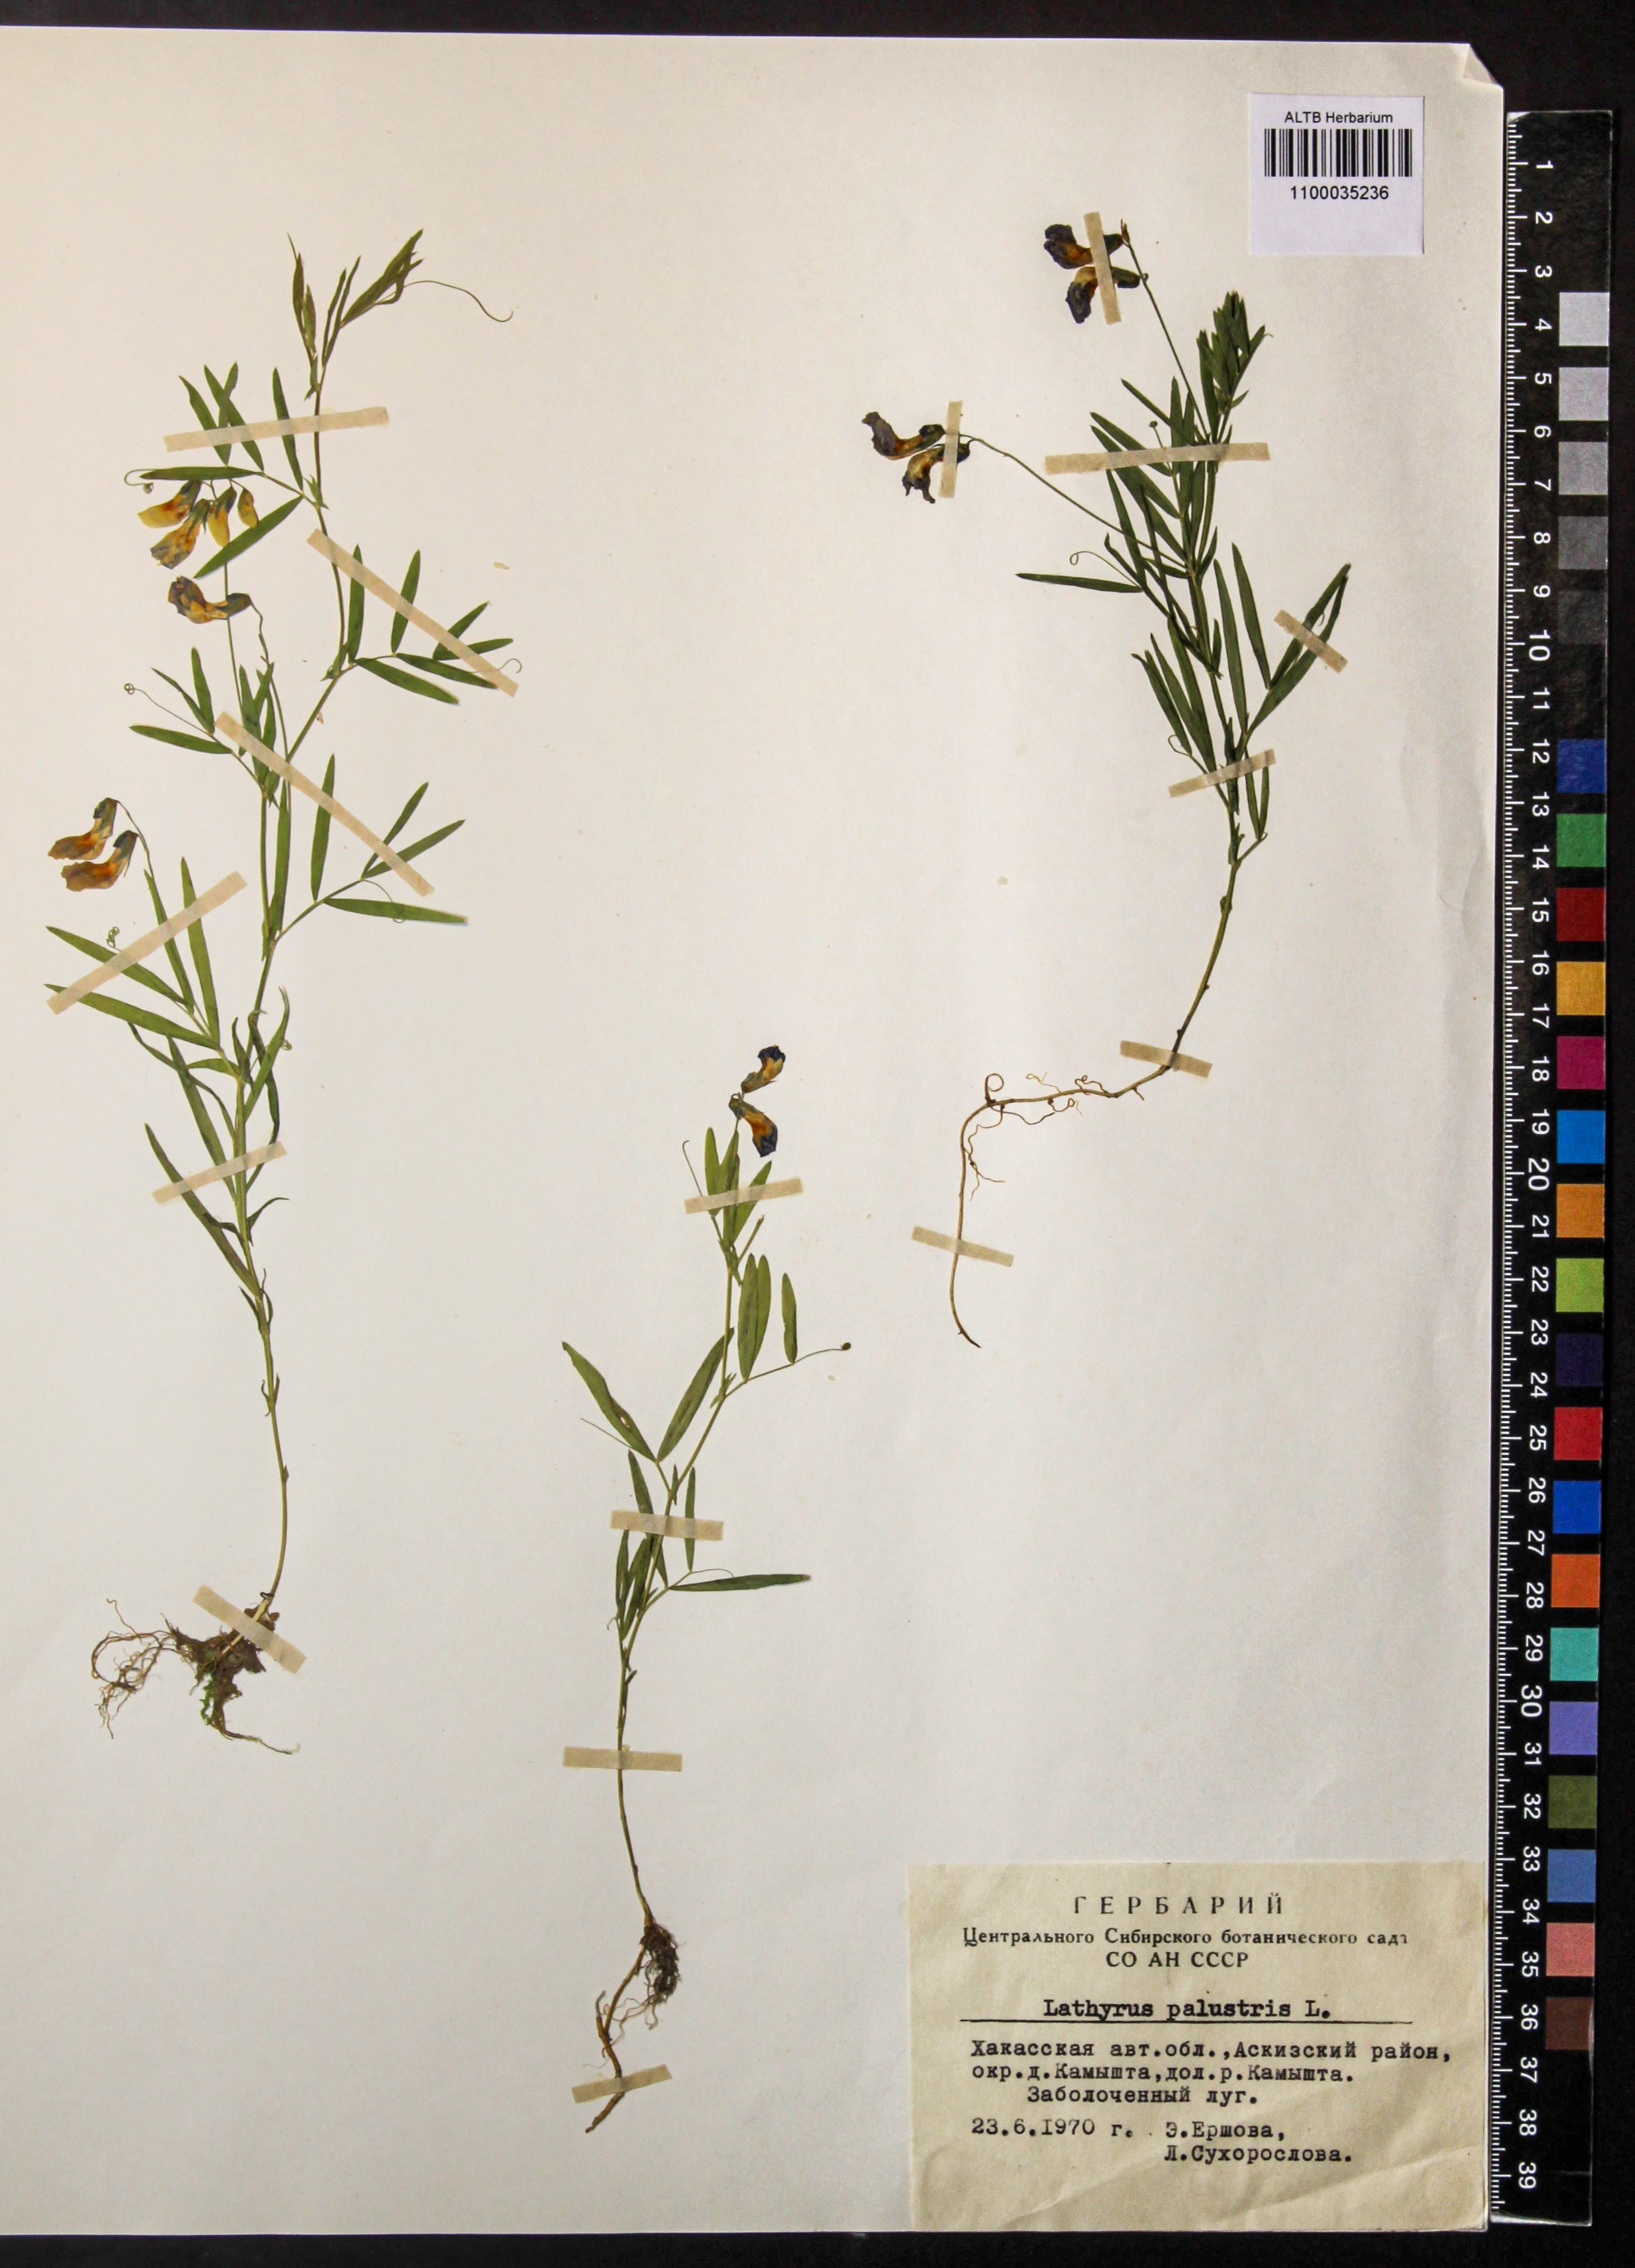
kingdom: Plantae
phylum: Tracheophyta
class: Magnoliopsida
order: Fabales
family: Fabaceae
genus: Lathyrus
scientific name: Lathyrus palustris
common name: Marsh pea
